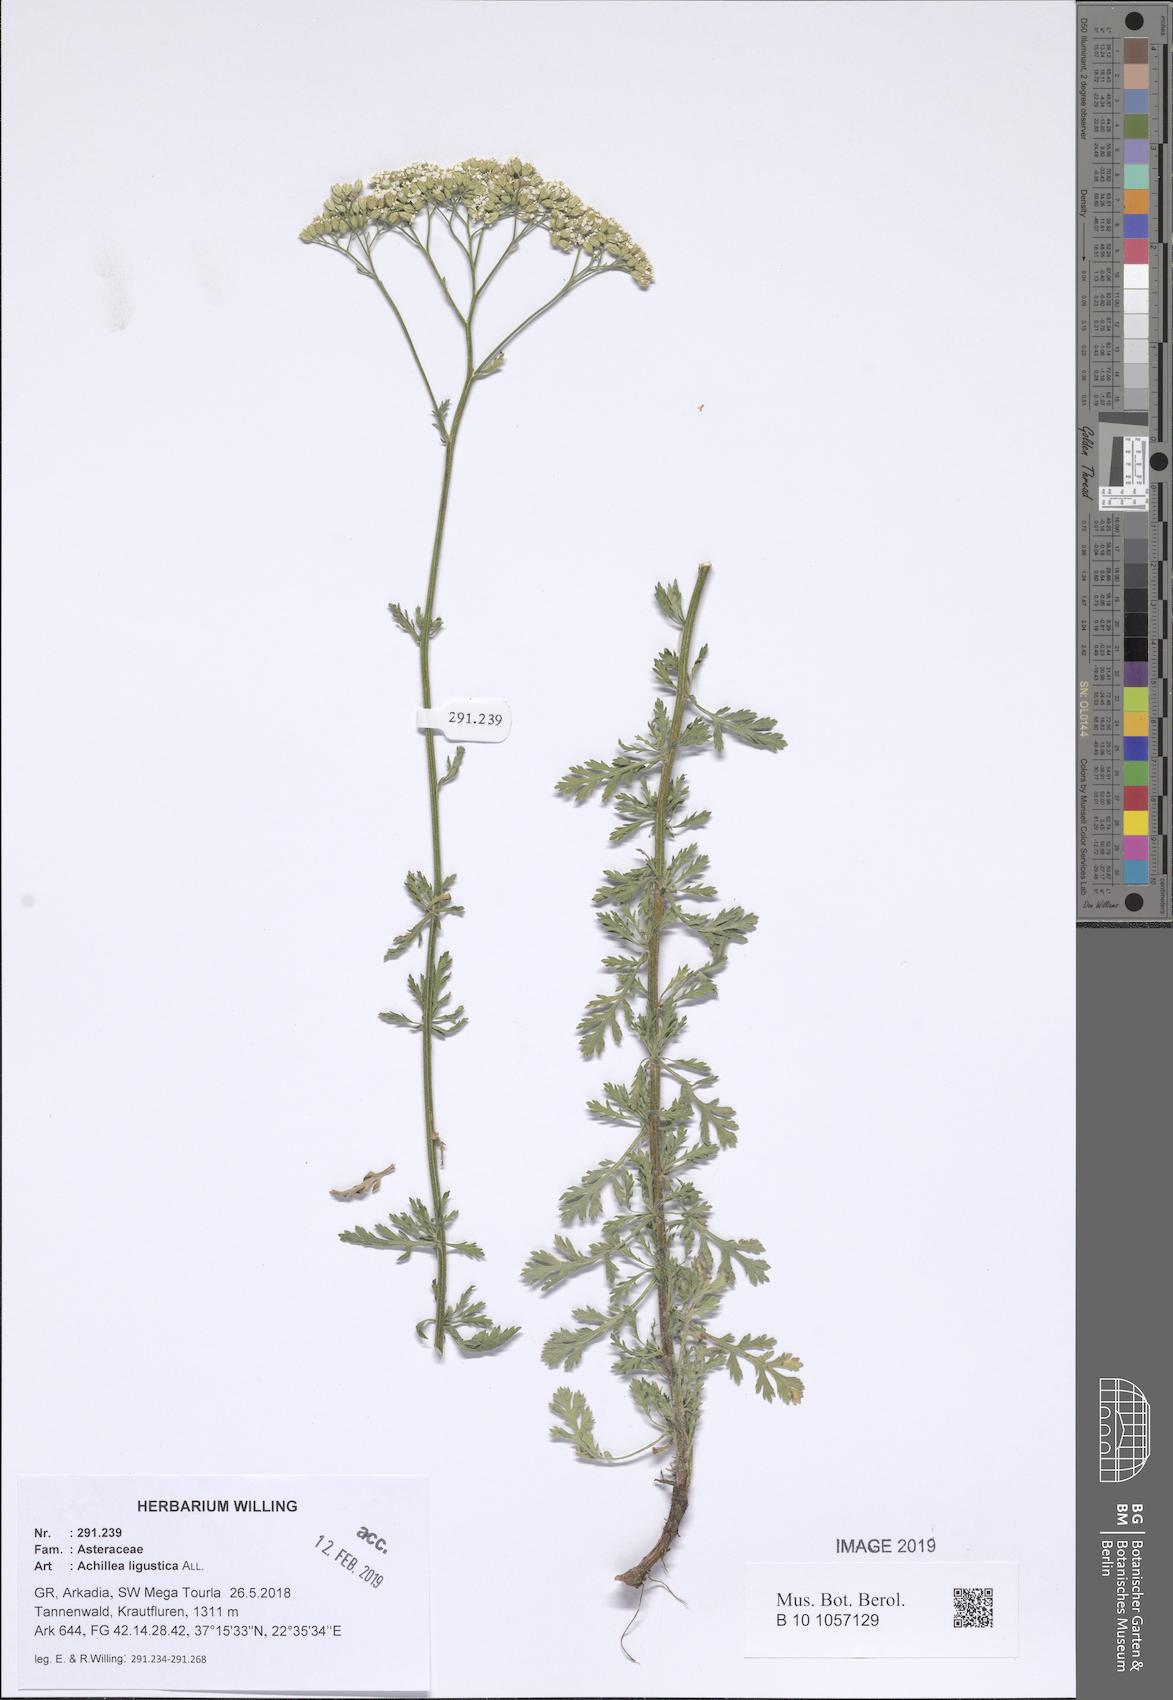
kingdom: Plantae
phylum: Tracheophyta
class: Magnoliopsida
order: Asterales
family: Asteraceae
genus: Achillea
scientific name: Achillea ligustica
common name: Southern yarrow
